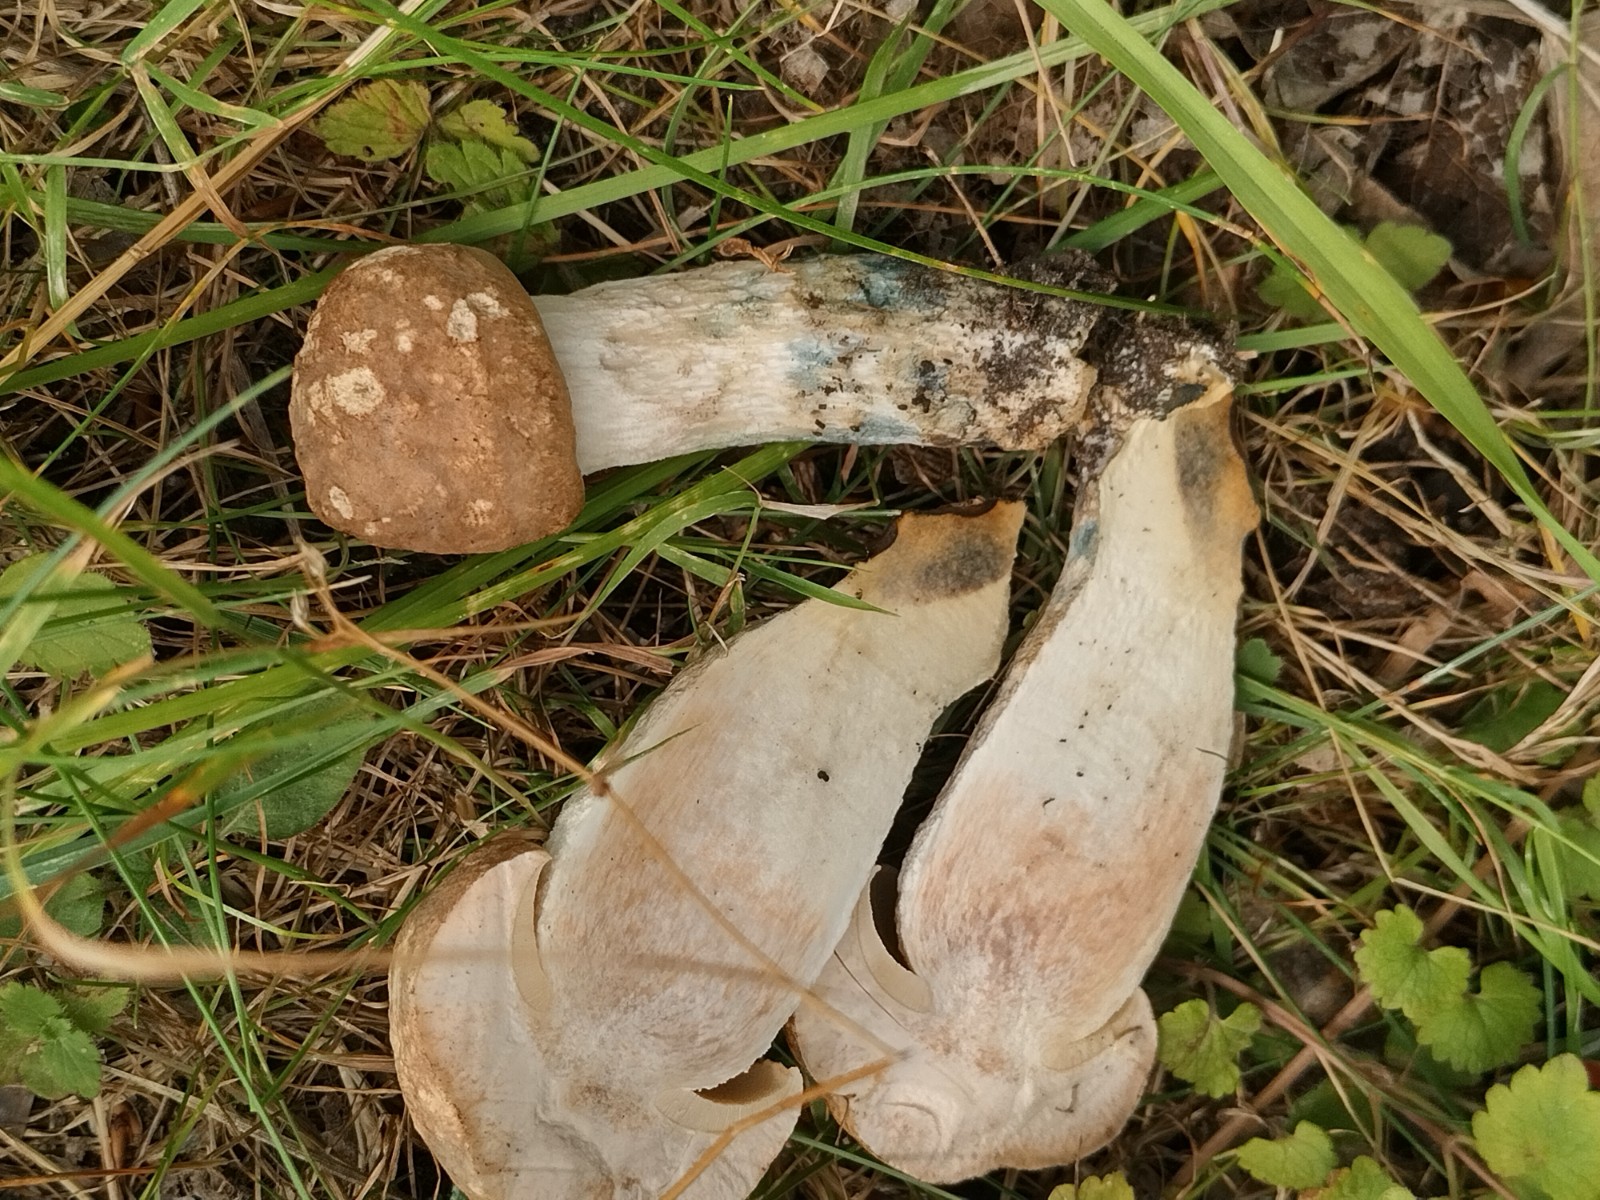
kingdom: Fungi
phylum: Basidiomycota
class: Agaricomycetes
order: Boletales
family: Boletaceae
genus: Leccinum
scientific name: Leccinum duriusculum
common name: poppel-skælrørhat
